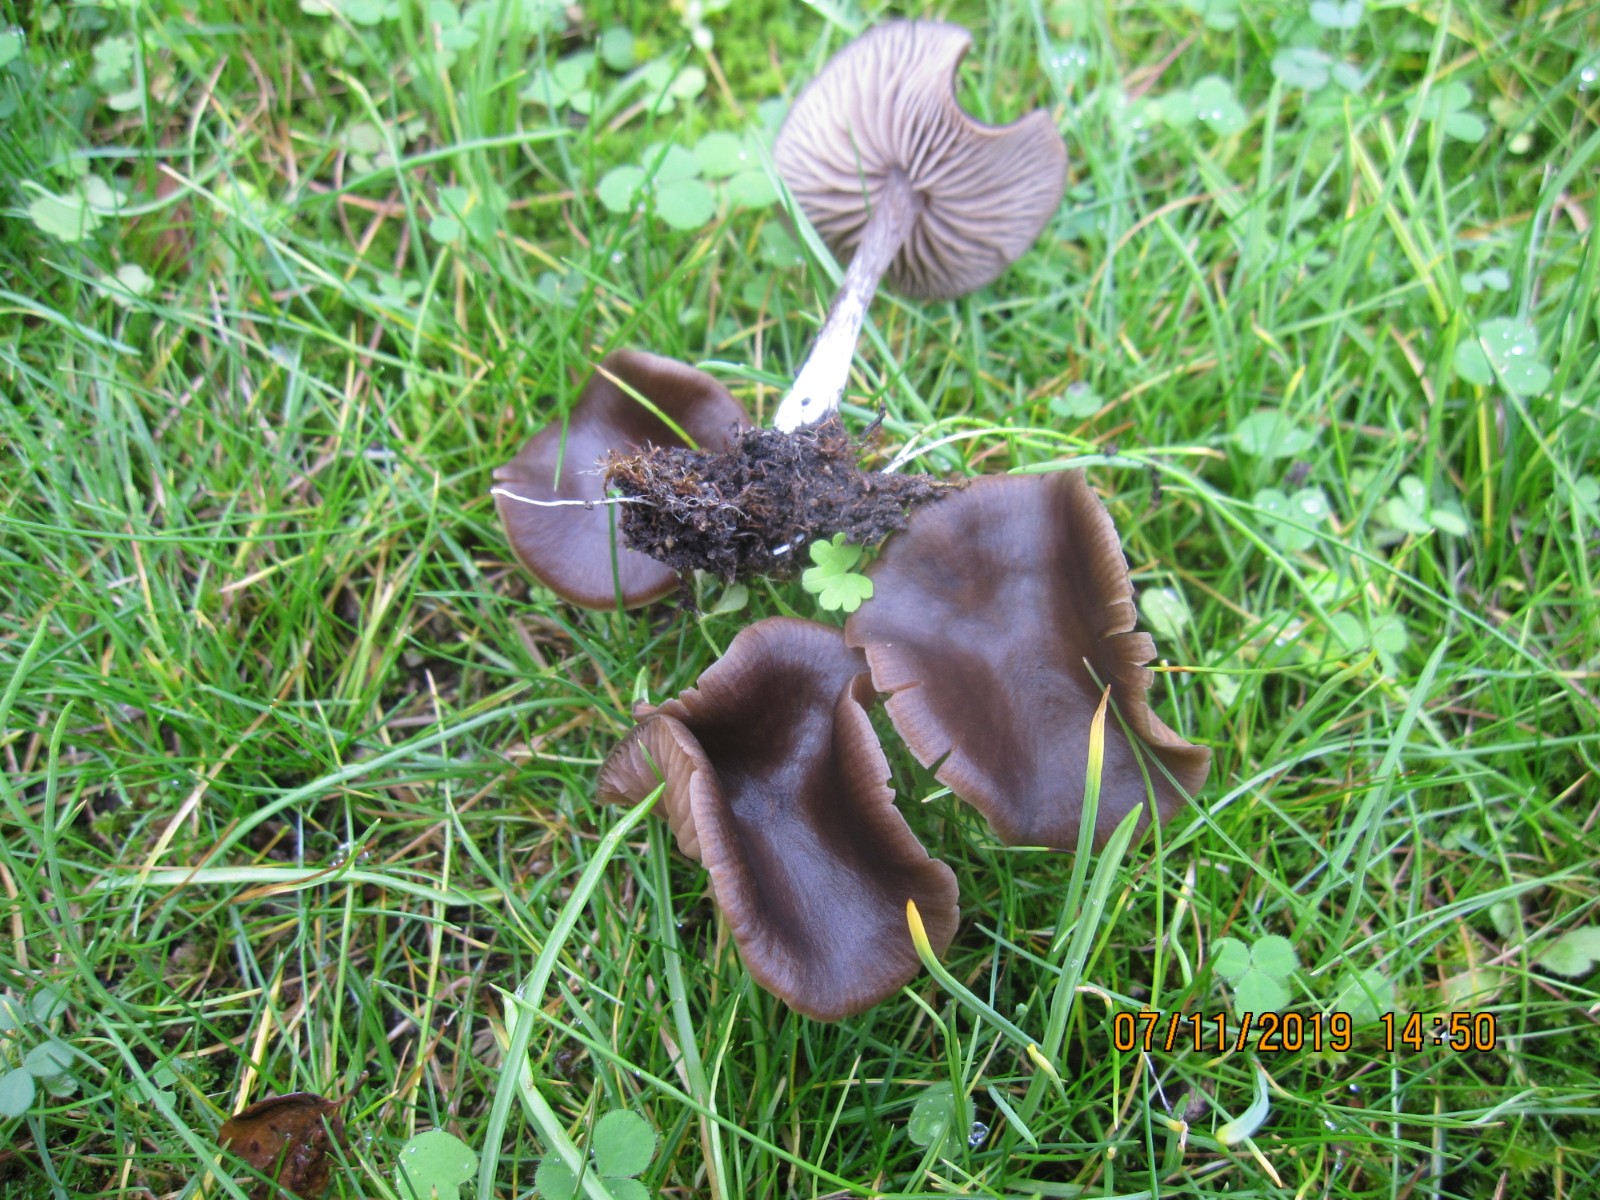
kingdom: Fungi
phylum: Basidiomycota
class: Agaricomycetes
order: Agaricales
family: Entolomataceae
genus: Entoloma
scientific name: Entoloma sericeum
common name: silkeglinsende rødblad
